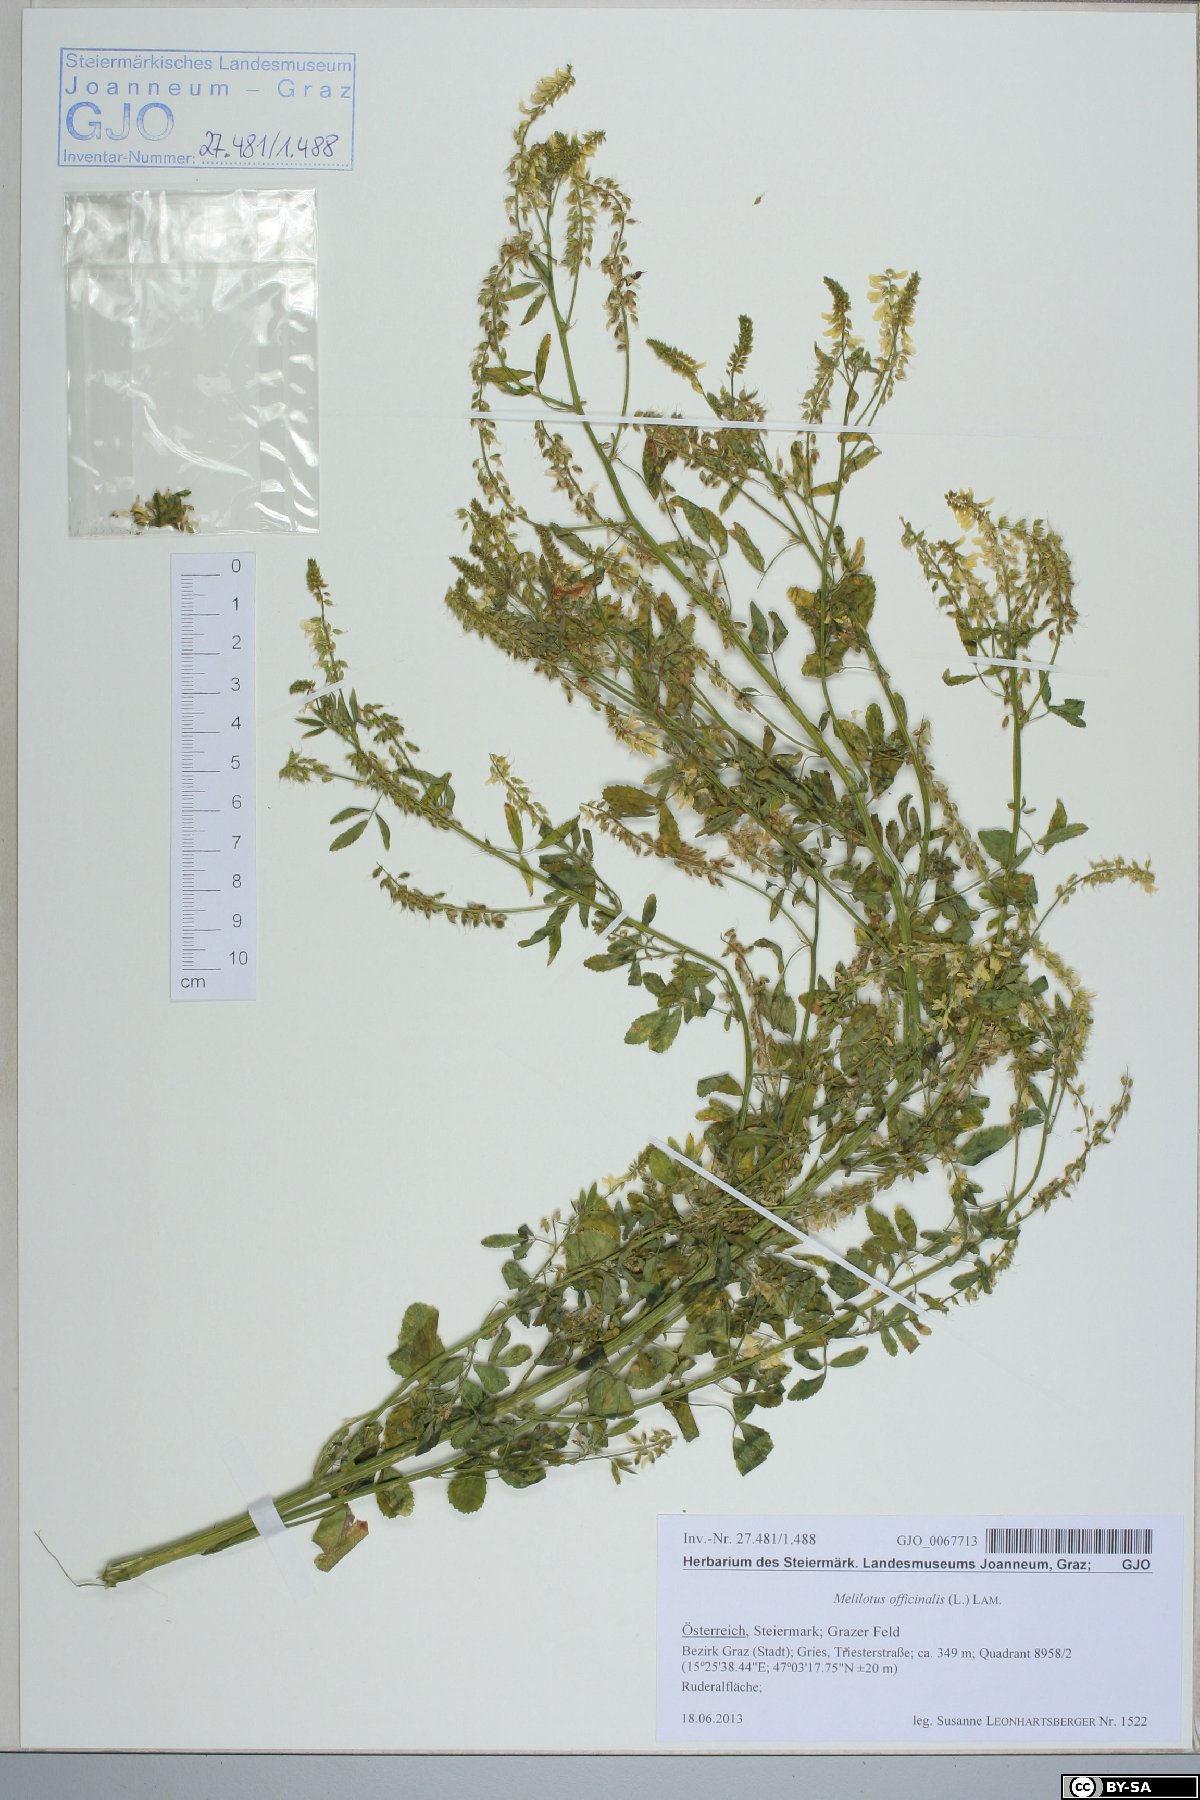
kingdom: Plantae
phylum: Tracheophyta
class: Magnoliopsida
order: Fabales
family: Fabaceae
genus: Melilotus
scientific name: Melilotus officinalis
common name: Sweetclover
